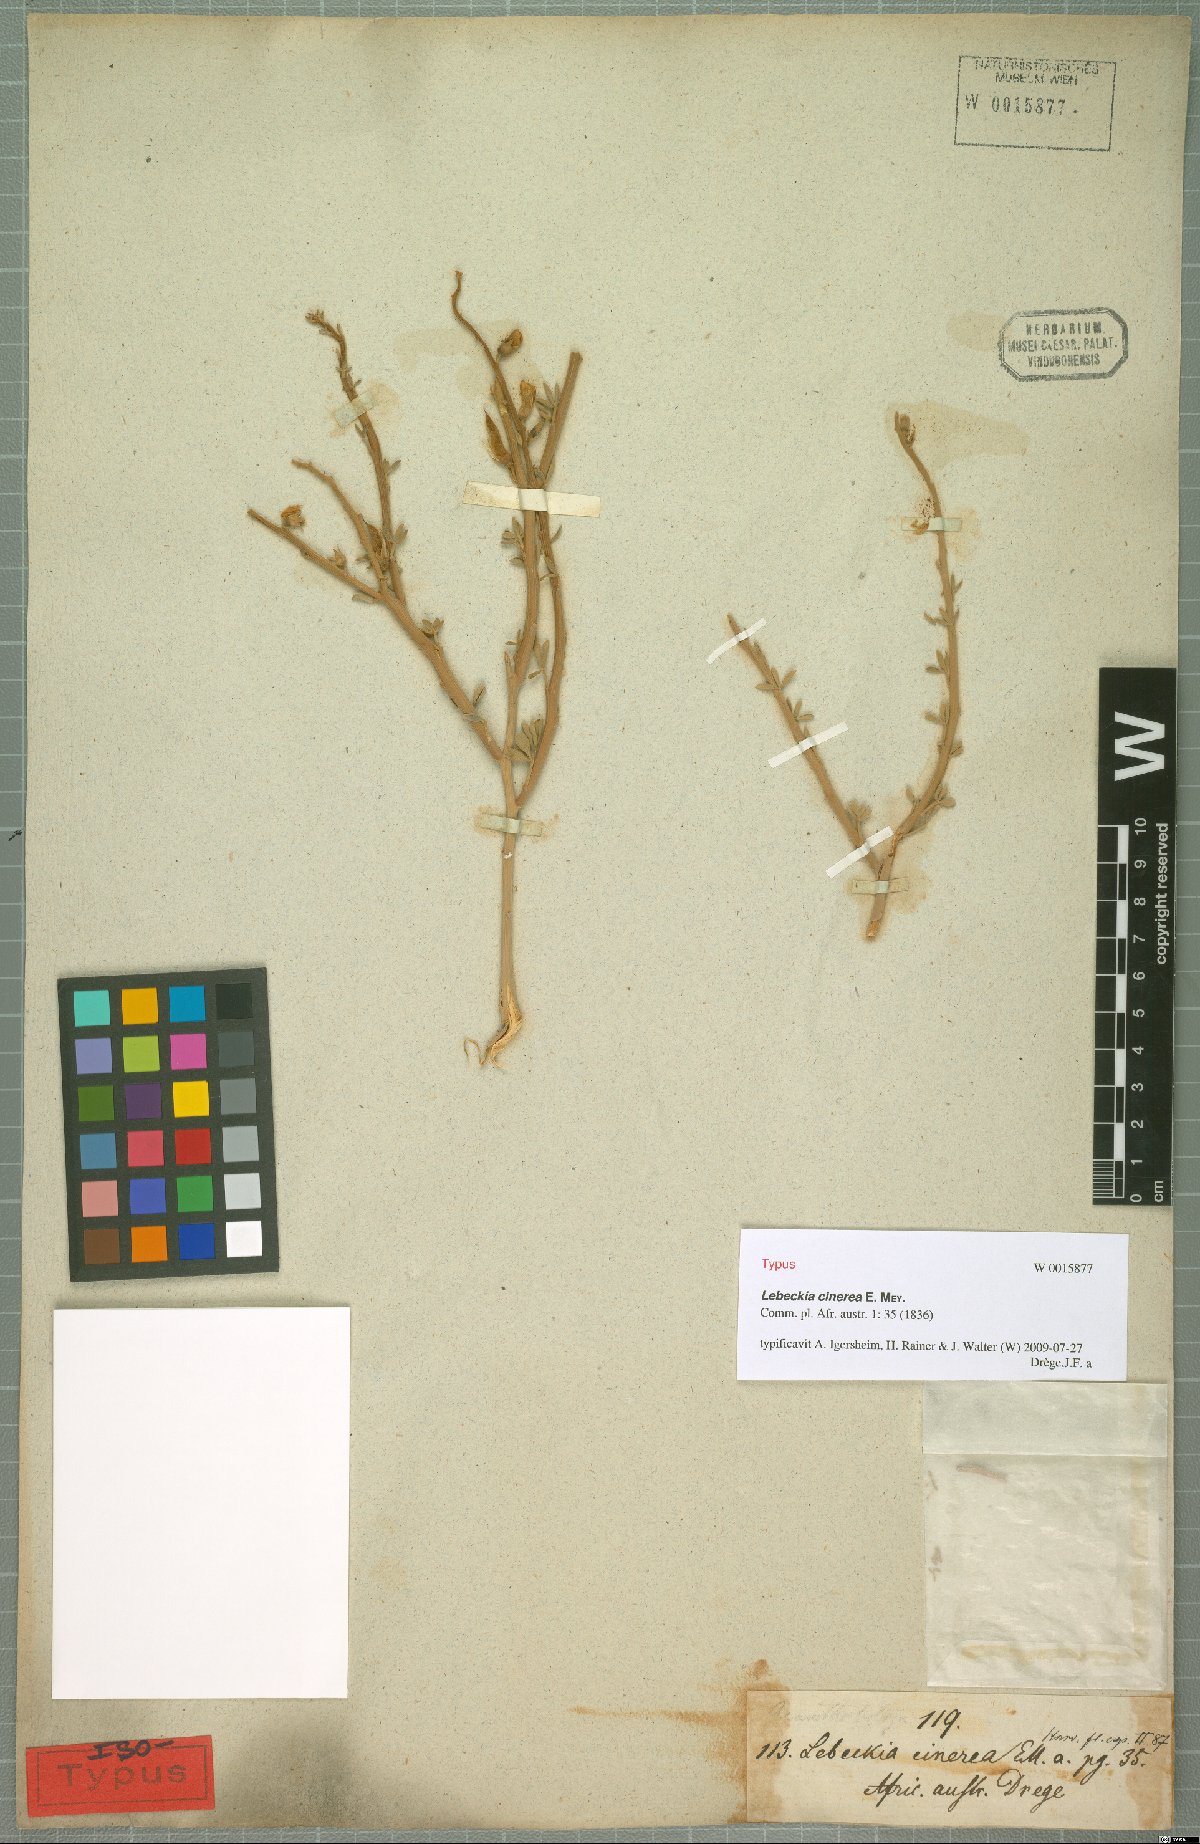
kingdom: Plantae
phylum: Tracheophyta
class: Magnoliopsida
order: Fabales
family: Fabaceae
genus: Calobota
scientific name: Calobota cinerea
